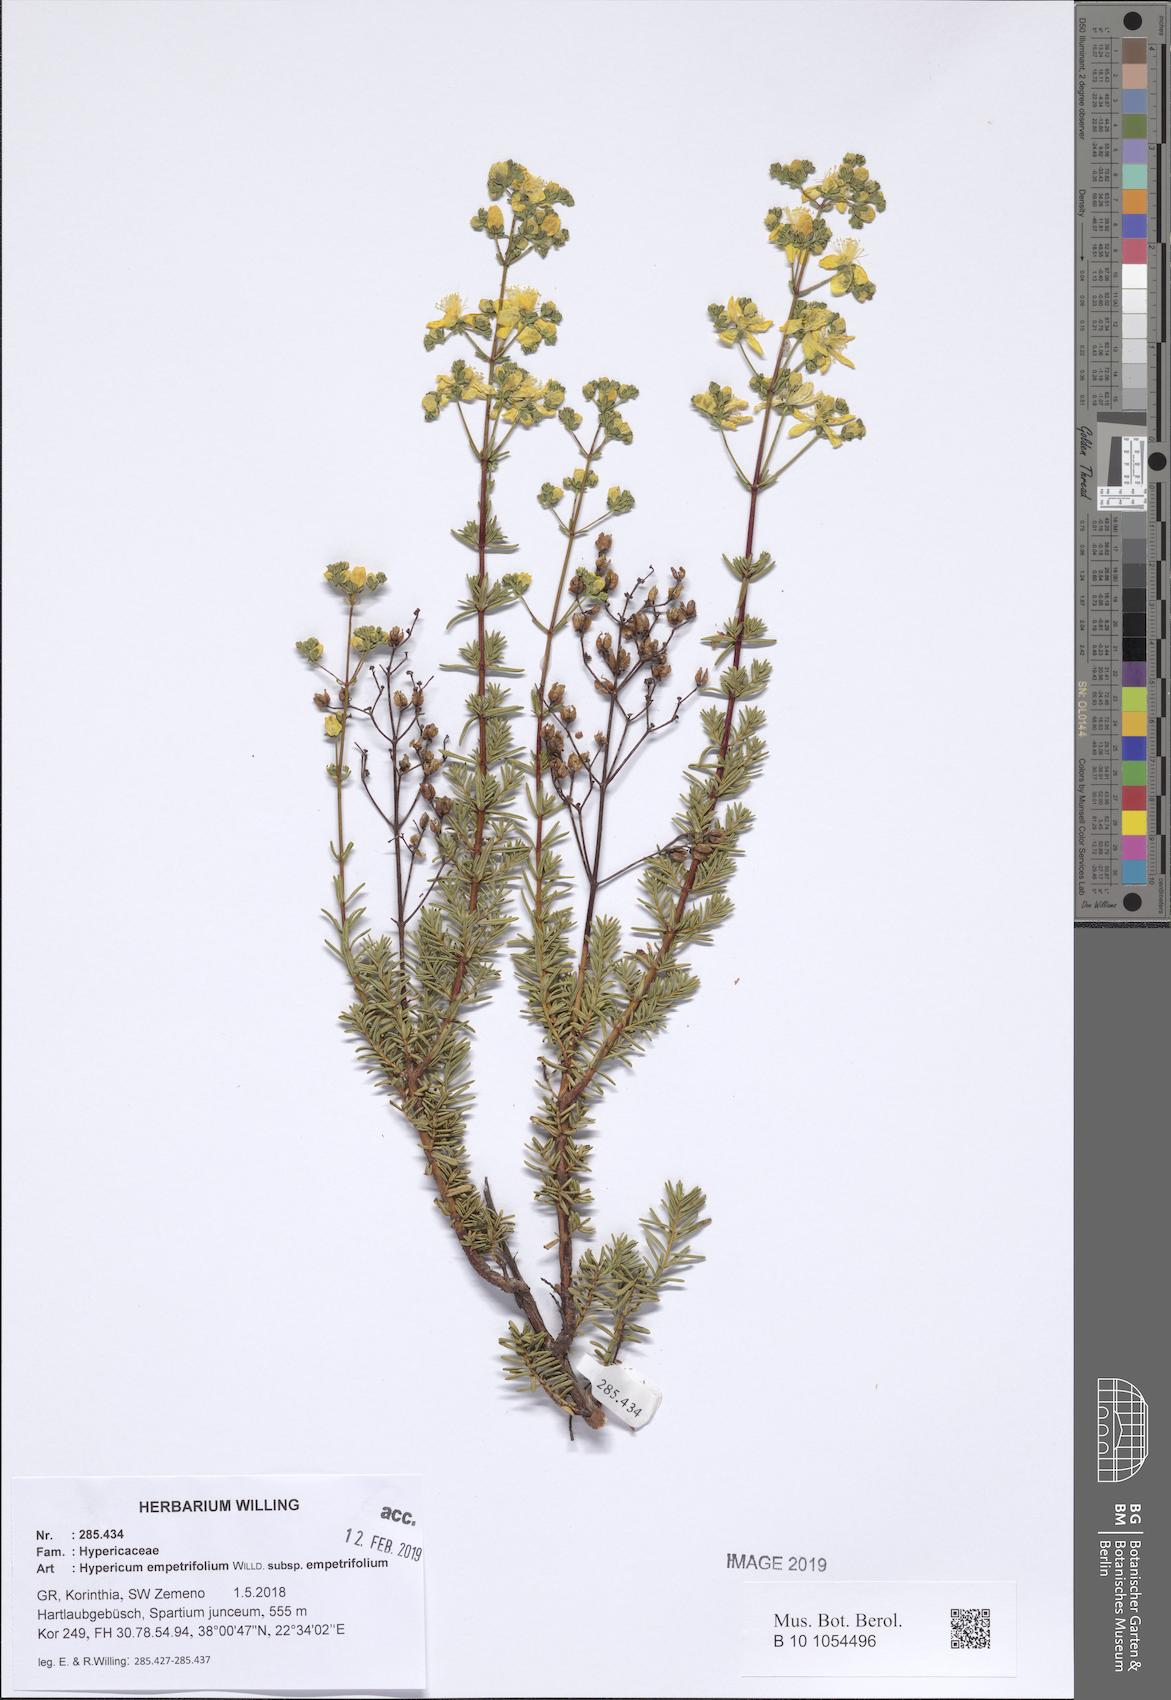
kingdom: Plantae
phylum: Tracheophyta
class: Magnoliopsida
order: Malpighiales
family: Hypericaceae
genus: Hypericum
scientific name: Hypericum empetrifolium
